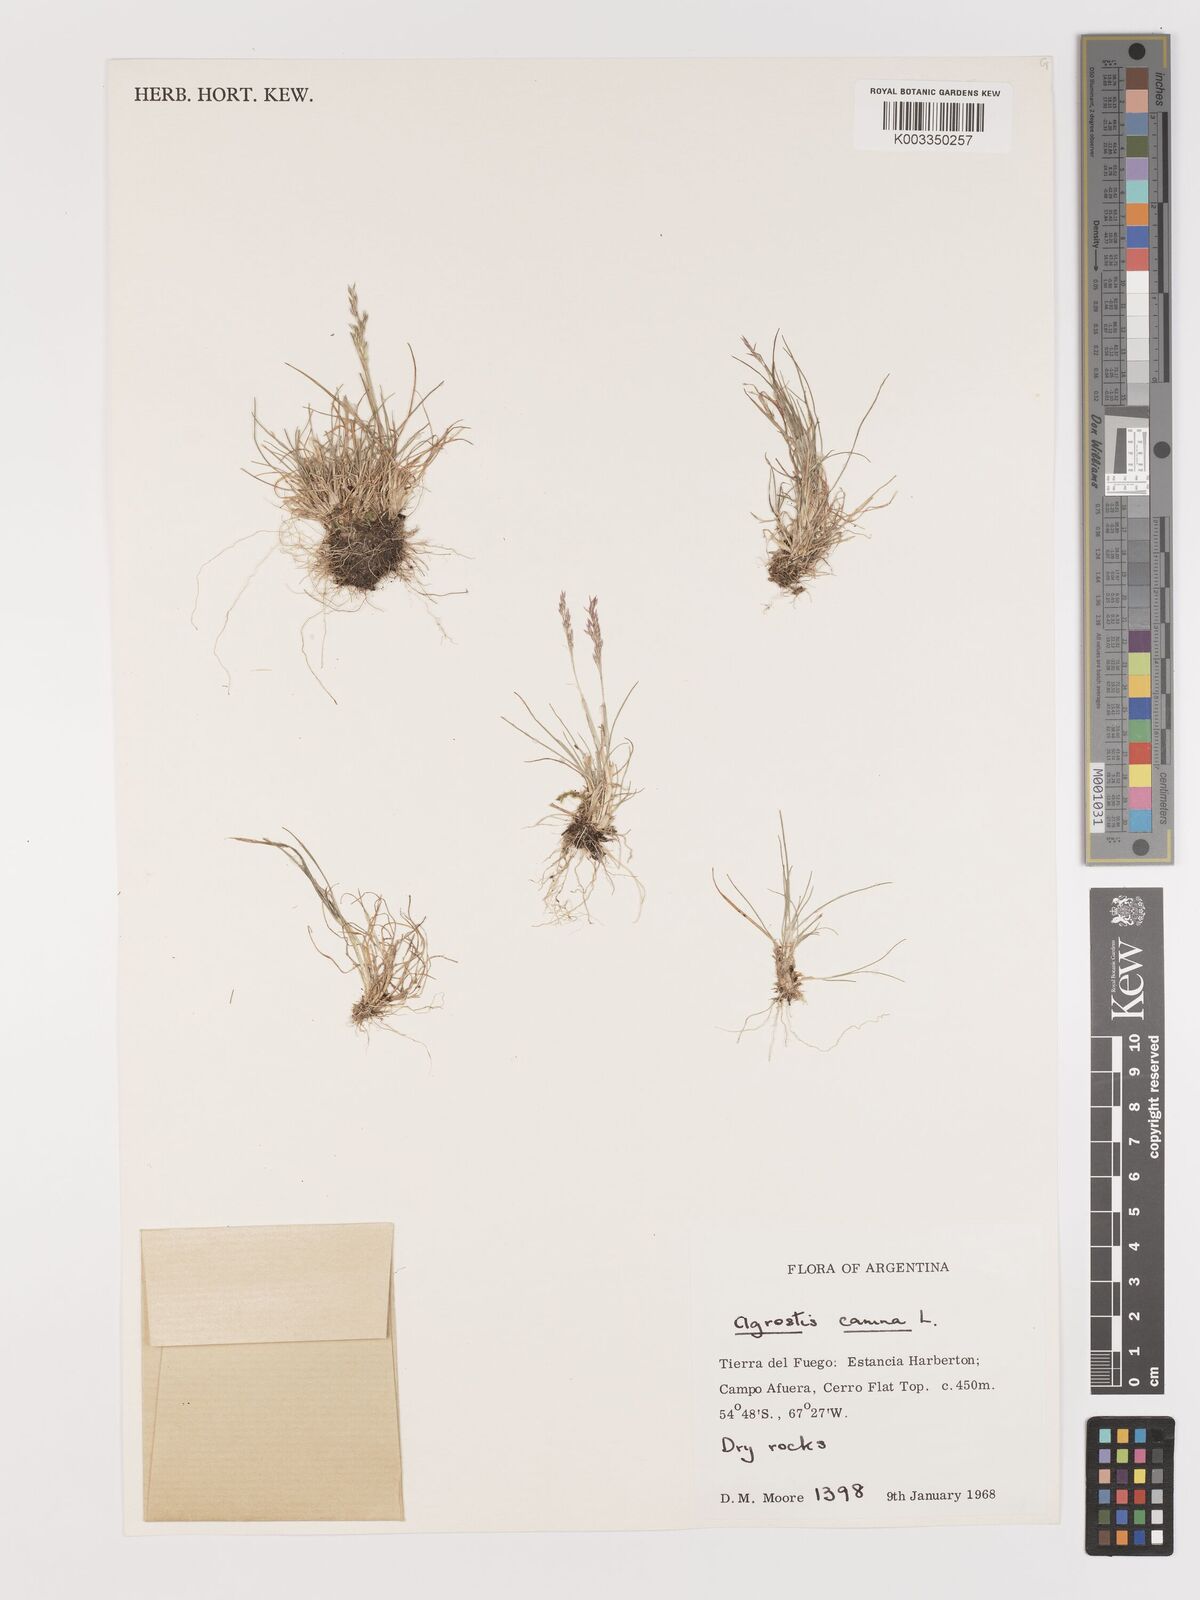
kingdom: Plantae
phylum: Tracheophyta
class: Liliopsida
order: Poales
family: Poaceae
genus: Agrostis
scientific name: Agrostis canina
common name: Velvet bent
